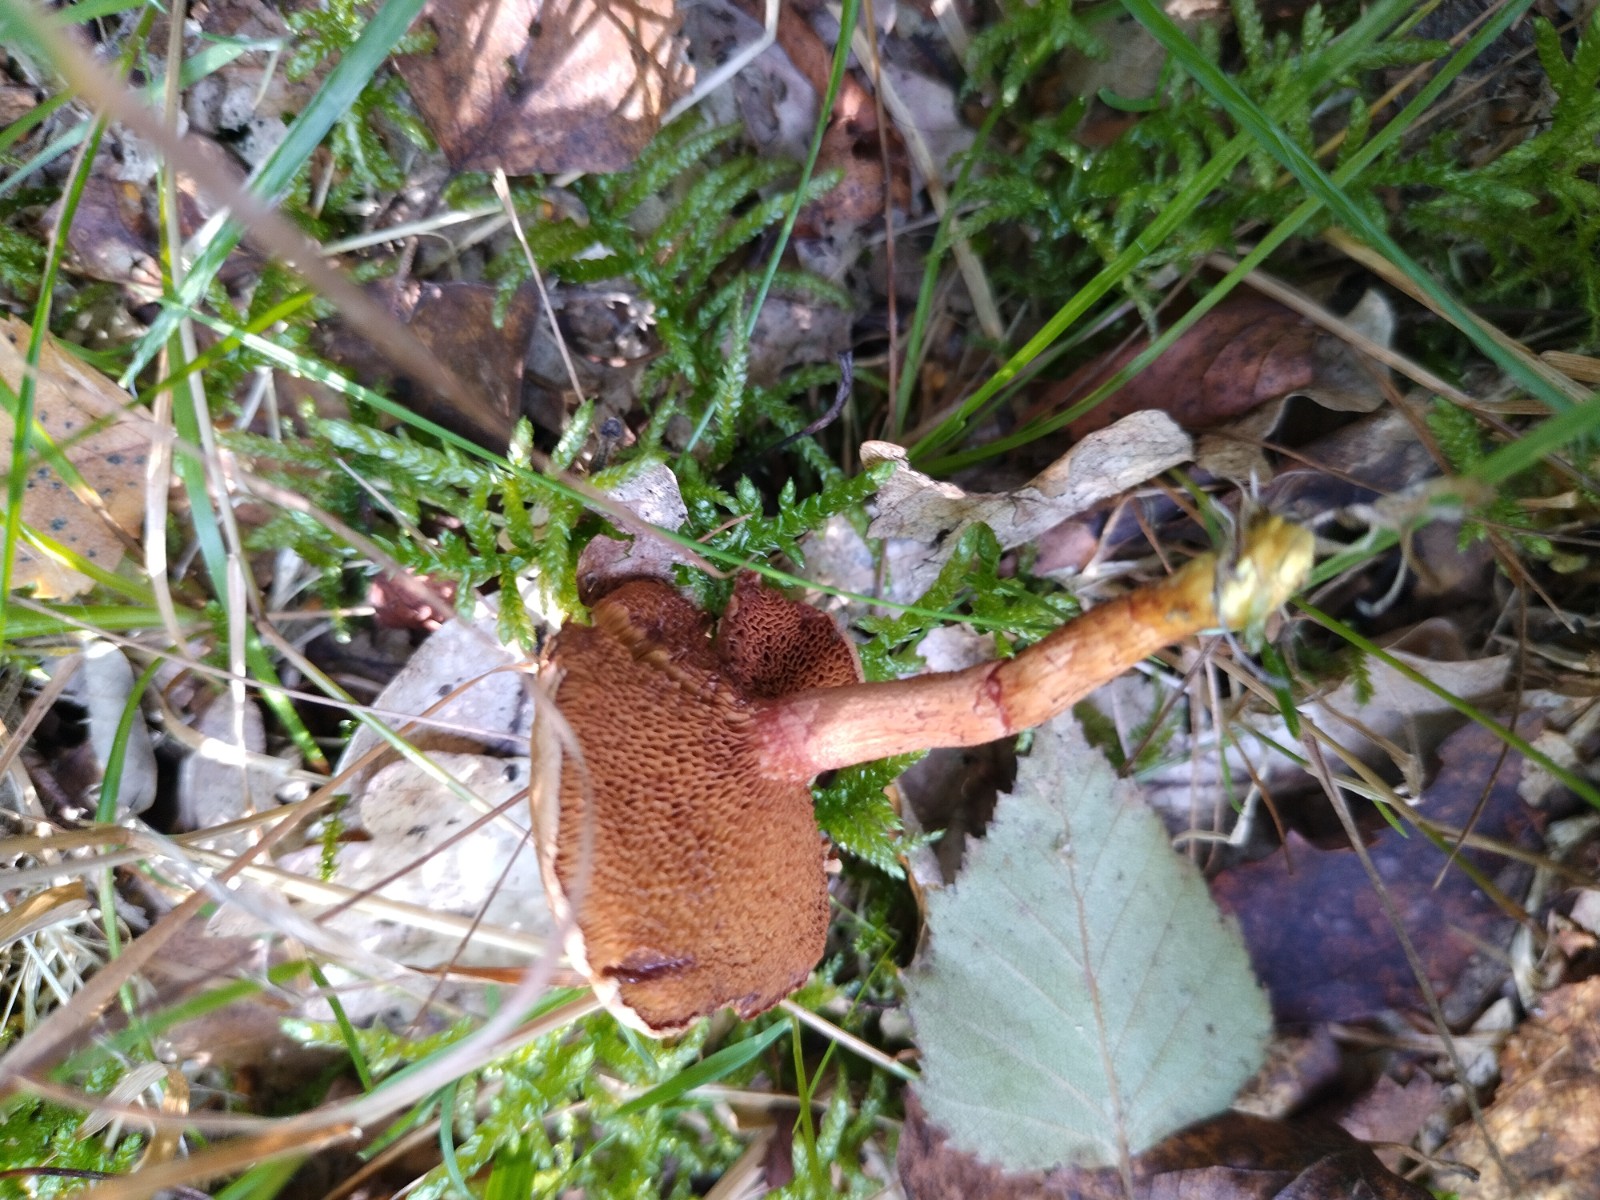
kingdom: Fungi
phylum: Basidiomycota
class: Agaricomycetes
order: Boletales
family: Boletaceae
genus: Chalciporus
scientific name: Chalciporus piperatus
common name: peberrørhat
